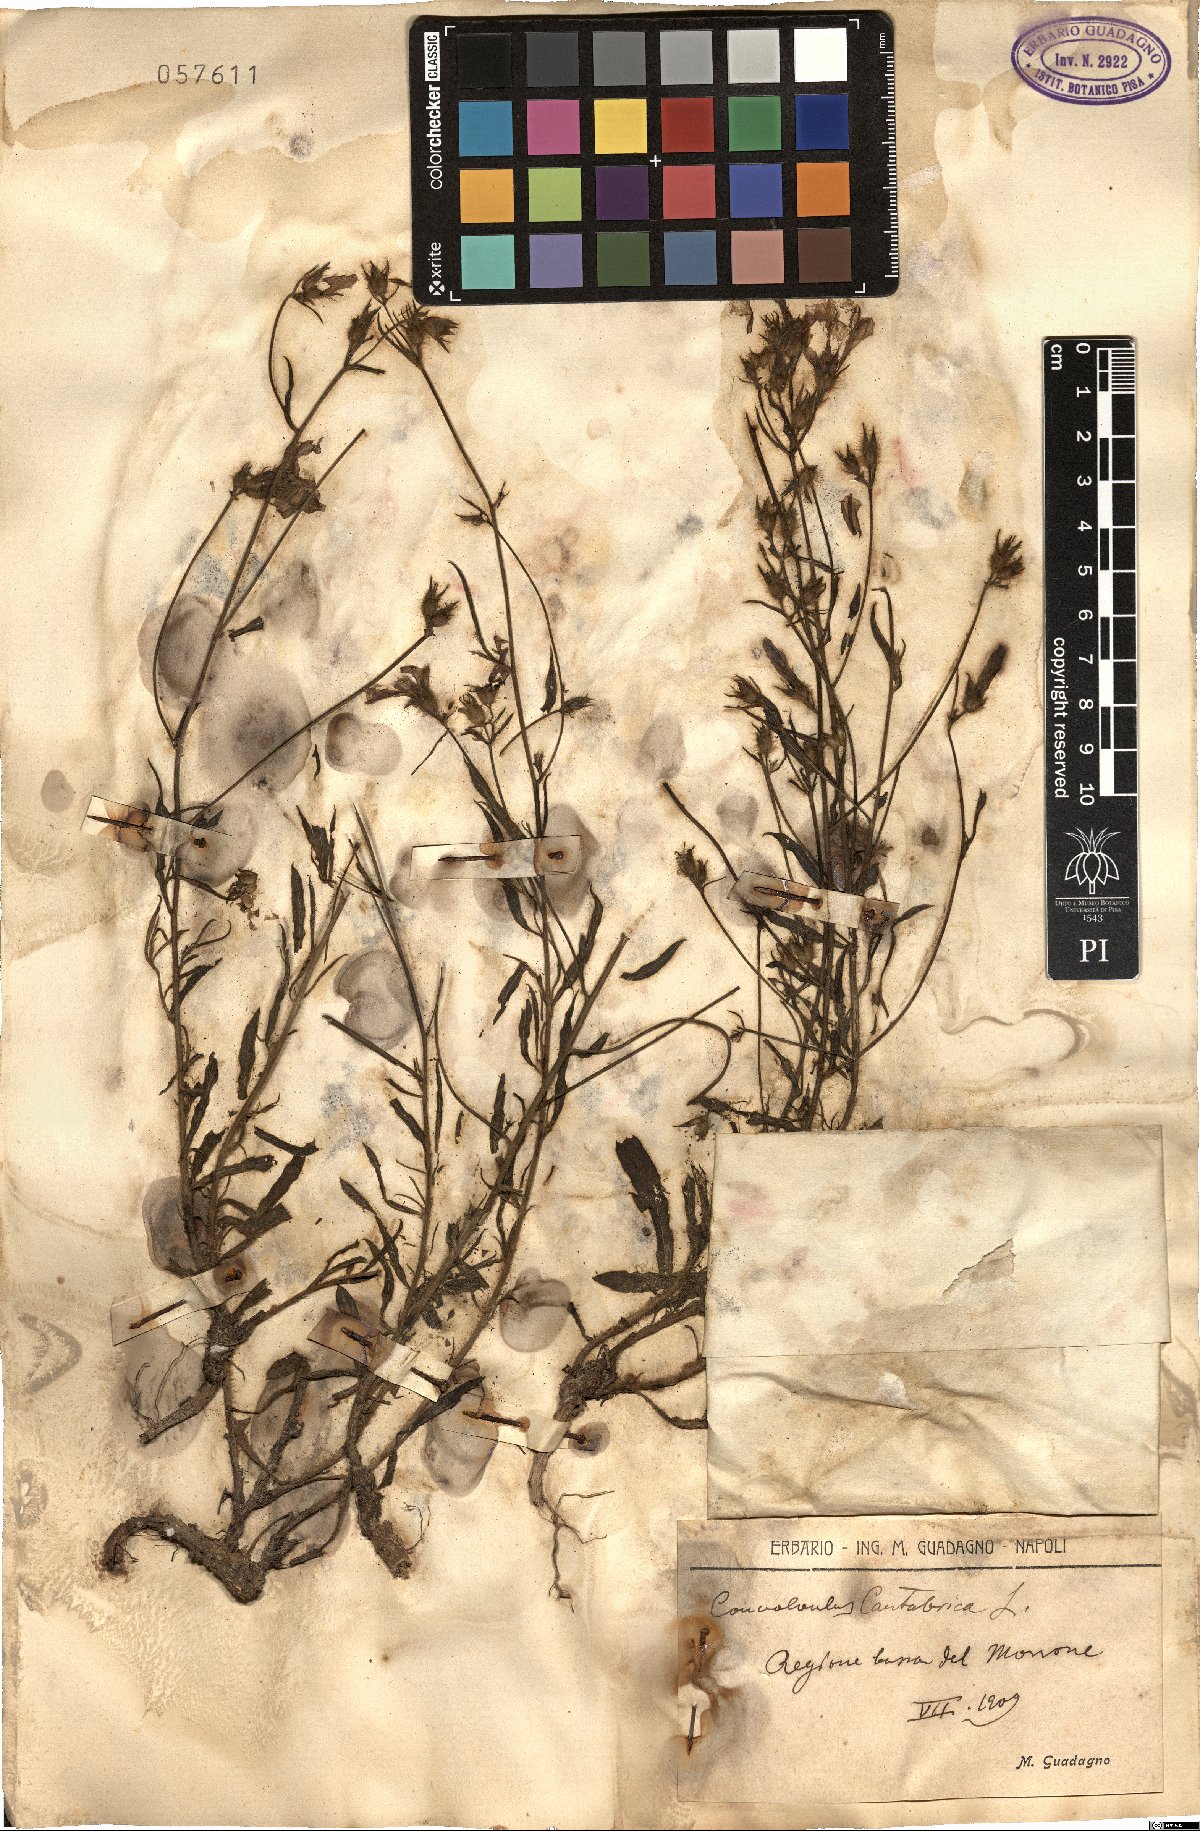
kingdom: Plantae
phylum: Tracheophyta
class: Magnoliopsida
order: Solanales
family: Convolvulaceae
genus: Convolvulus
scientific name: Convolvulus cantabrica
